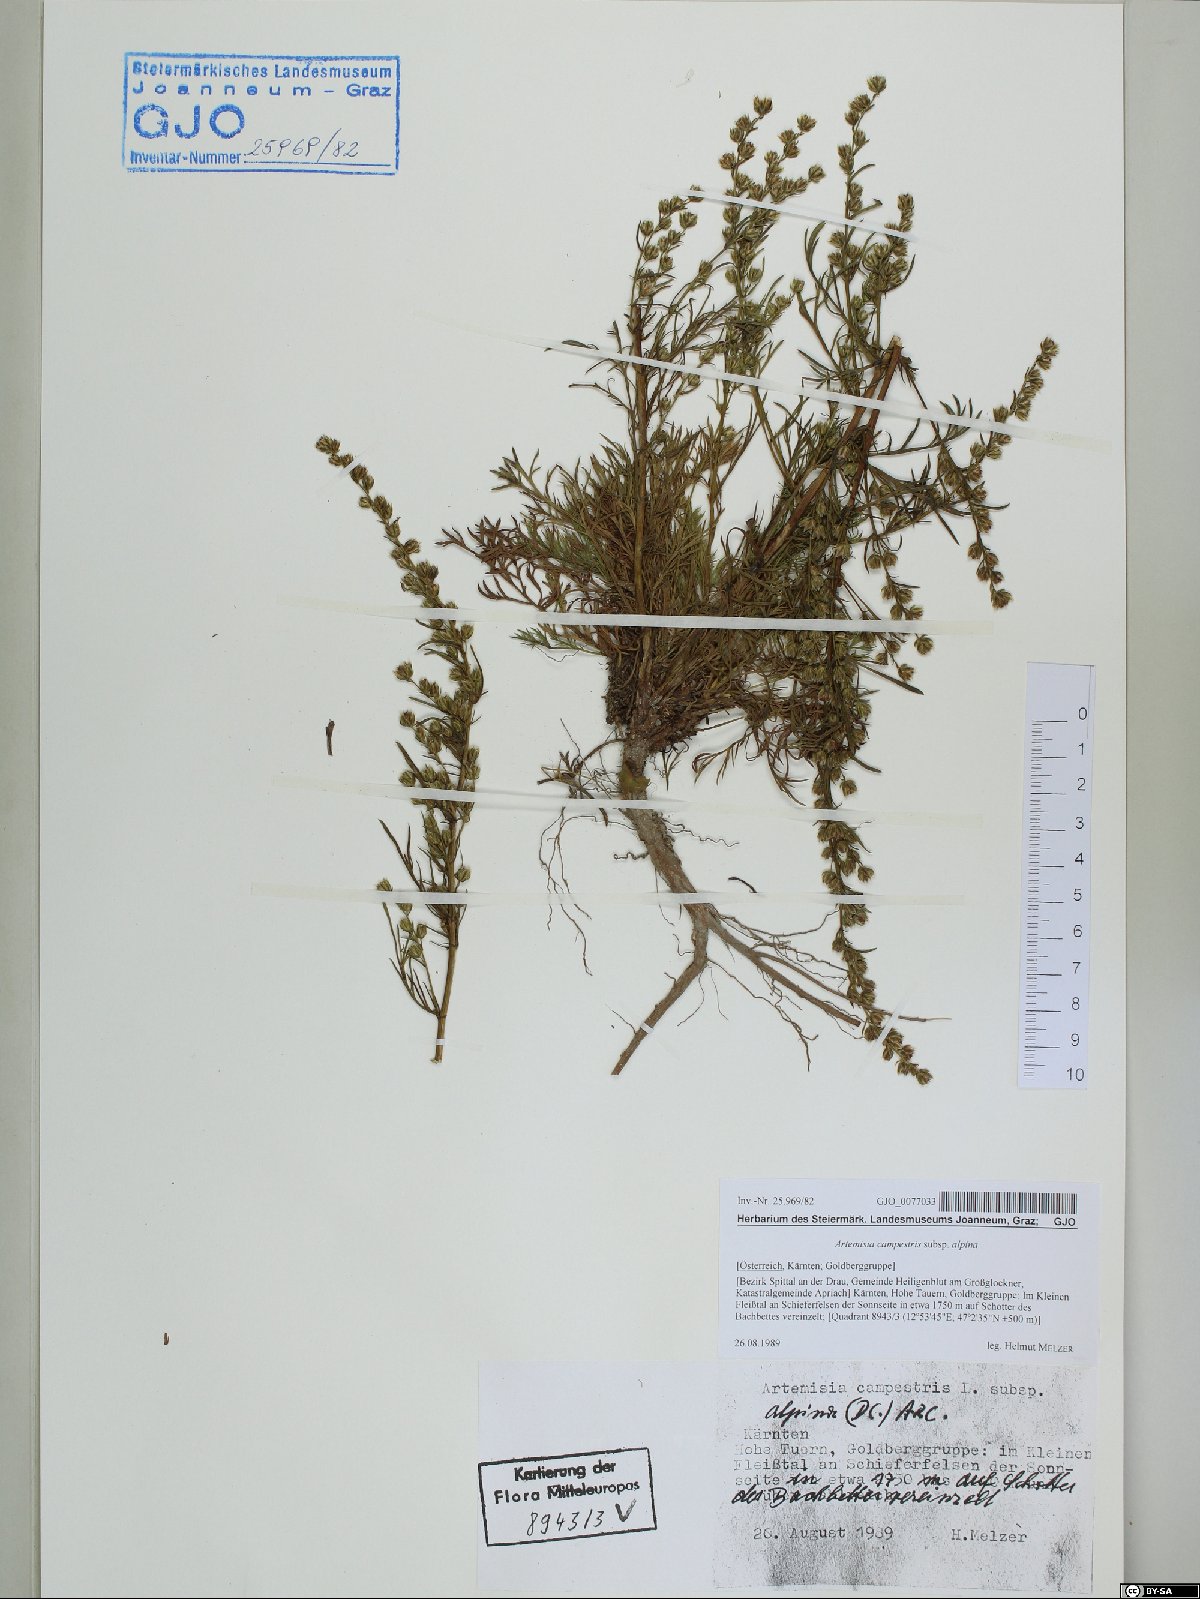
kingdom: Plantae
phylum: Tracheophyta
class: Magnoliopsida
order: Asterales
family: Asteraceae
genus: Artemisia
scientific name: Artemisia campestris
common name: Field wormwood
